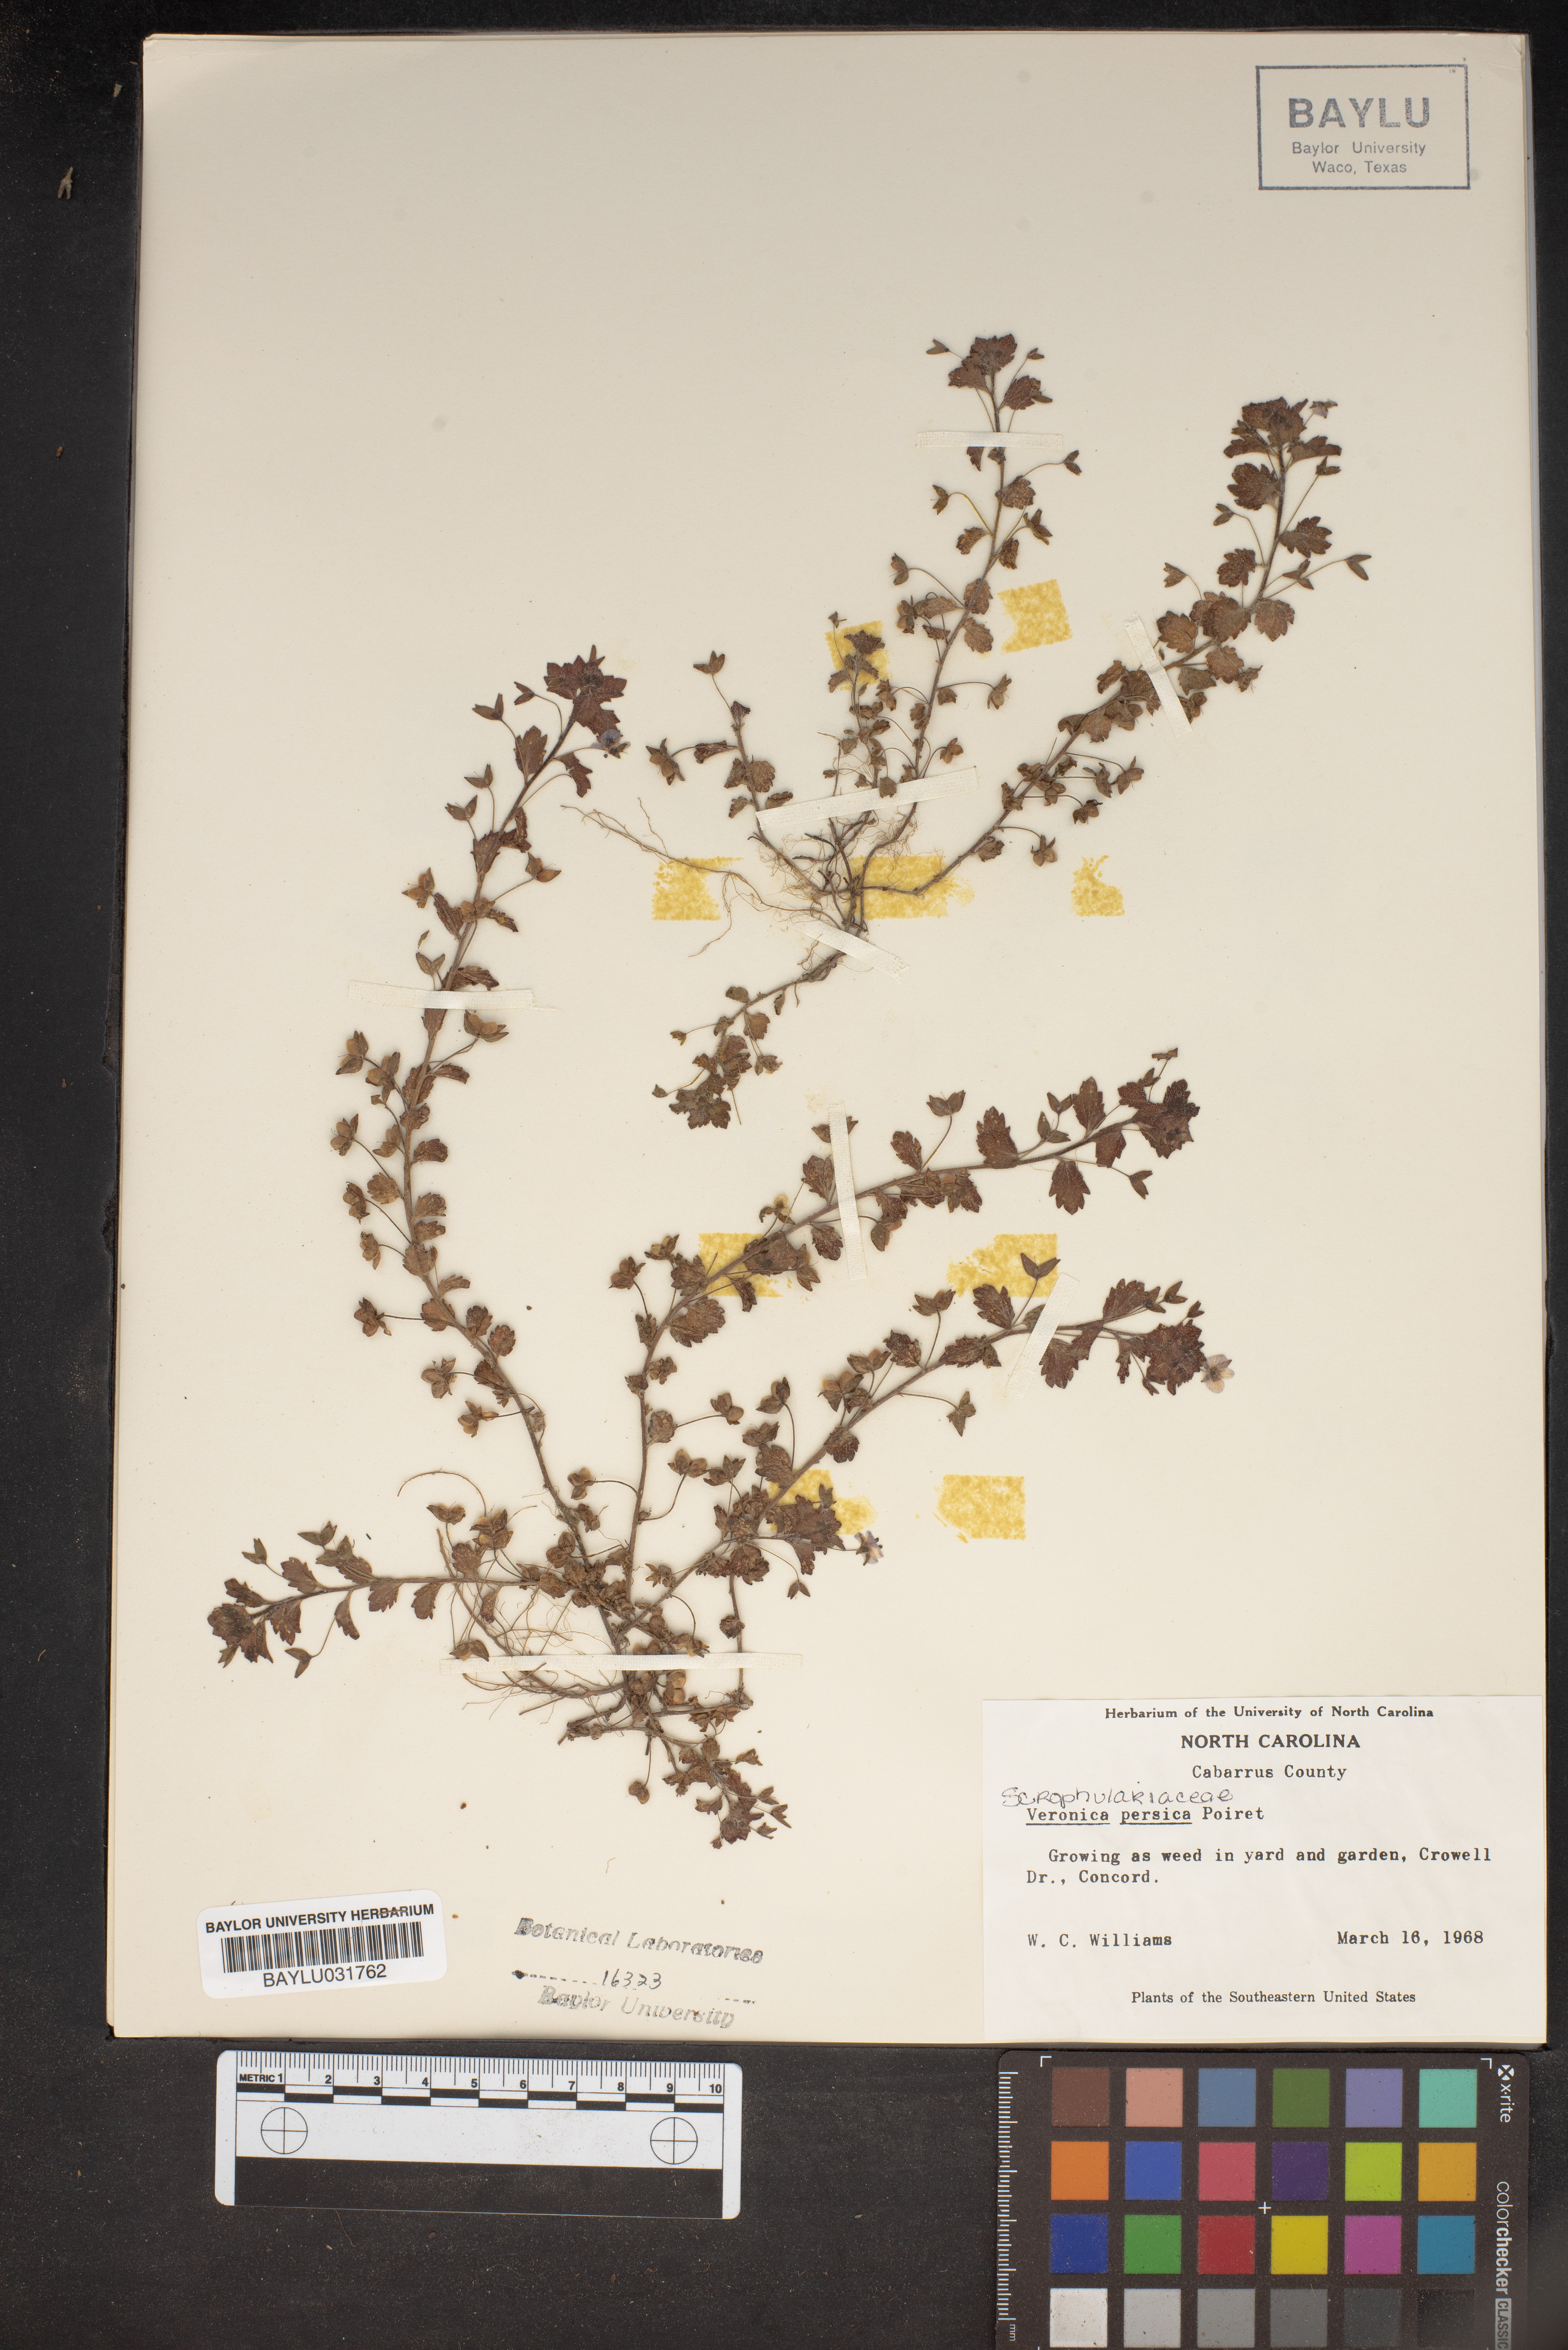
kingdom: Plantae
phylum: Tracheophyta
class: Magnoliopsida
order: Lamiales
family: Plantaginaceae
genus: Veronica
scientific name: Veronica persica
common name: Common field-speedwell
